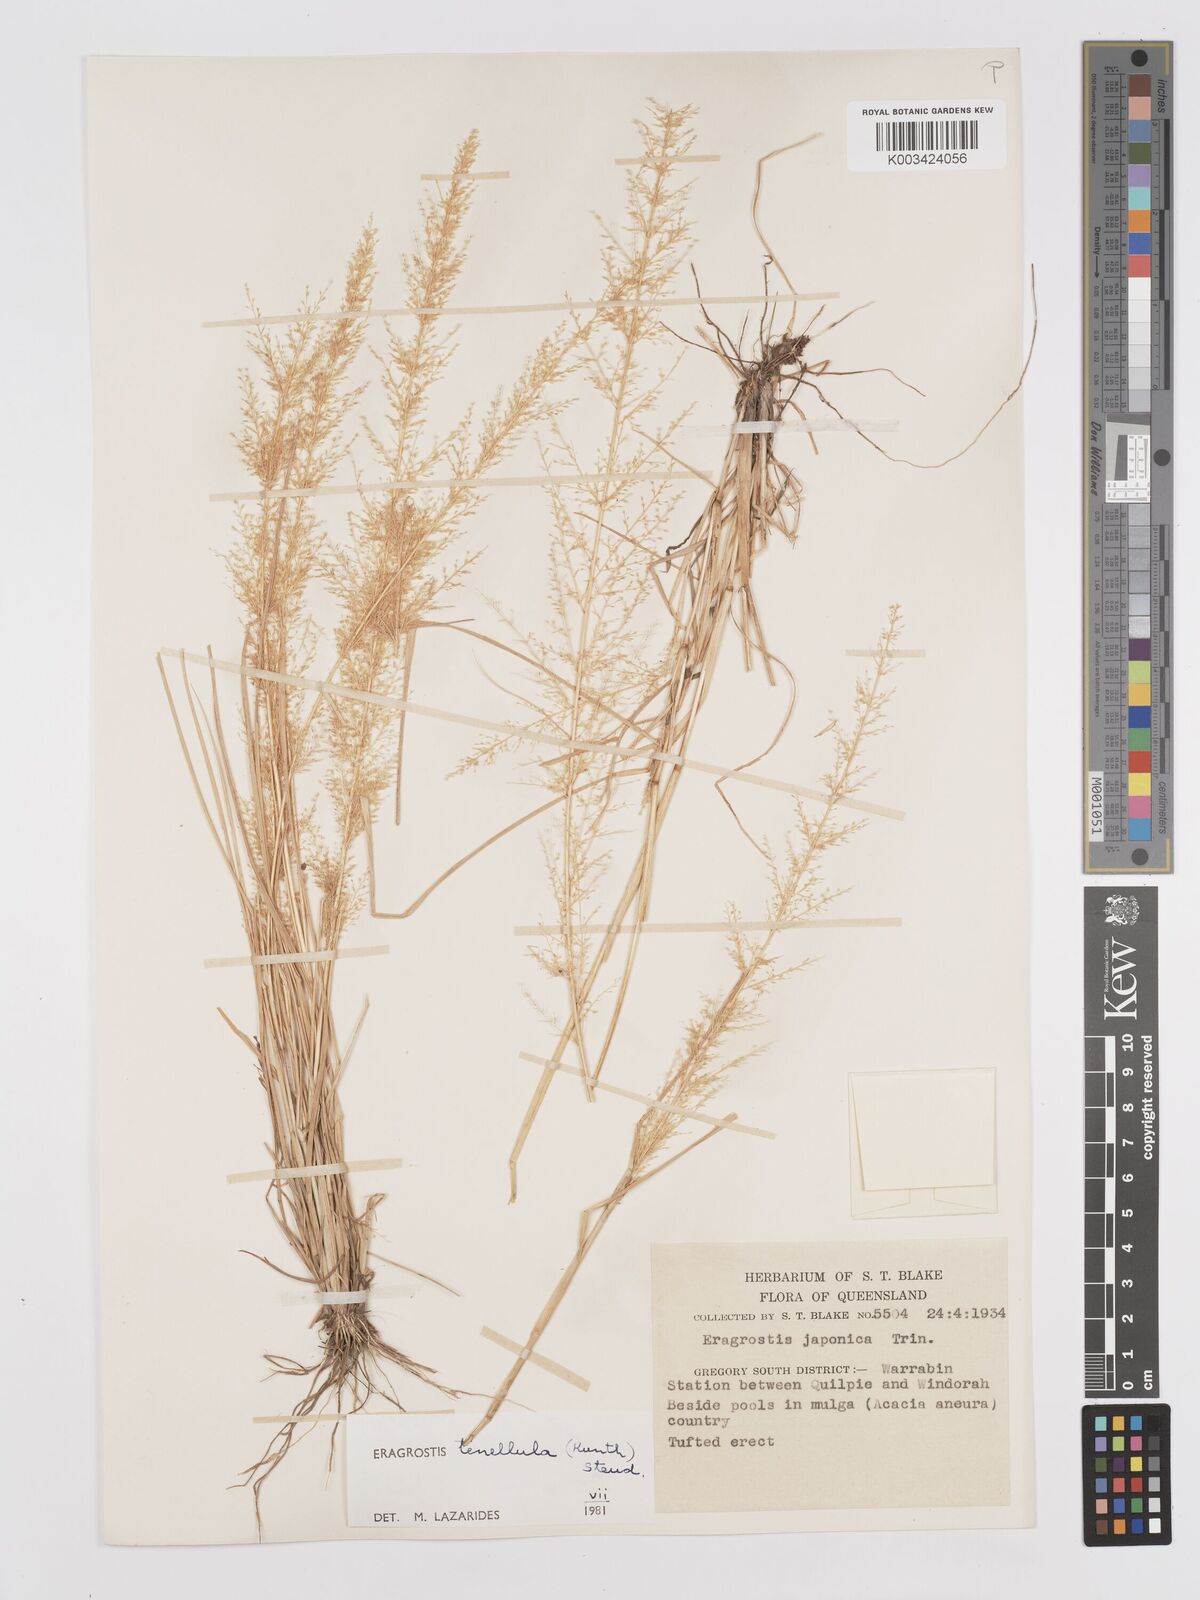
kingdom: Plantae
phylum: Tracheophyta
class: Liliopsida
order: Poales
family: Poaceae
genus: Eragrostis
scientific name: Eragrostis tenellula
